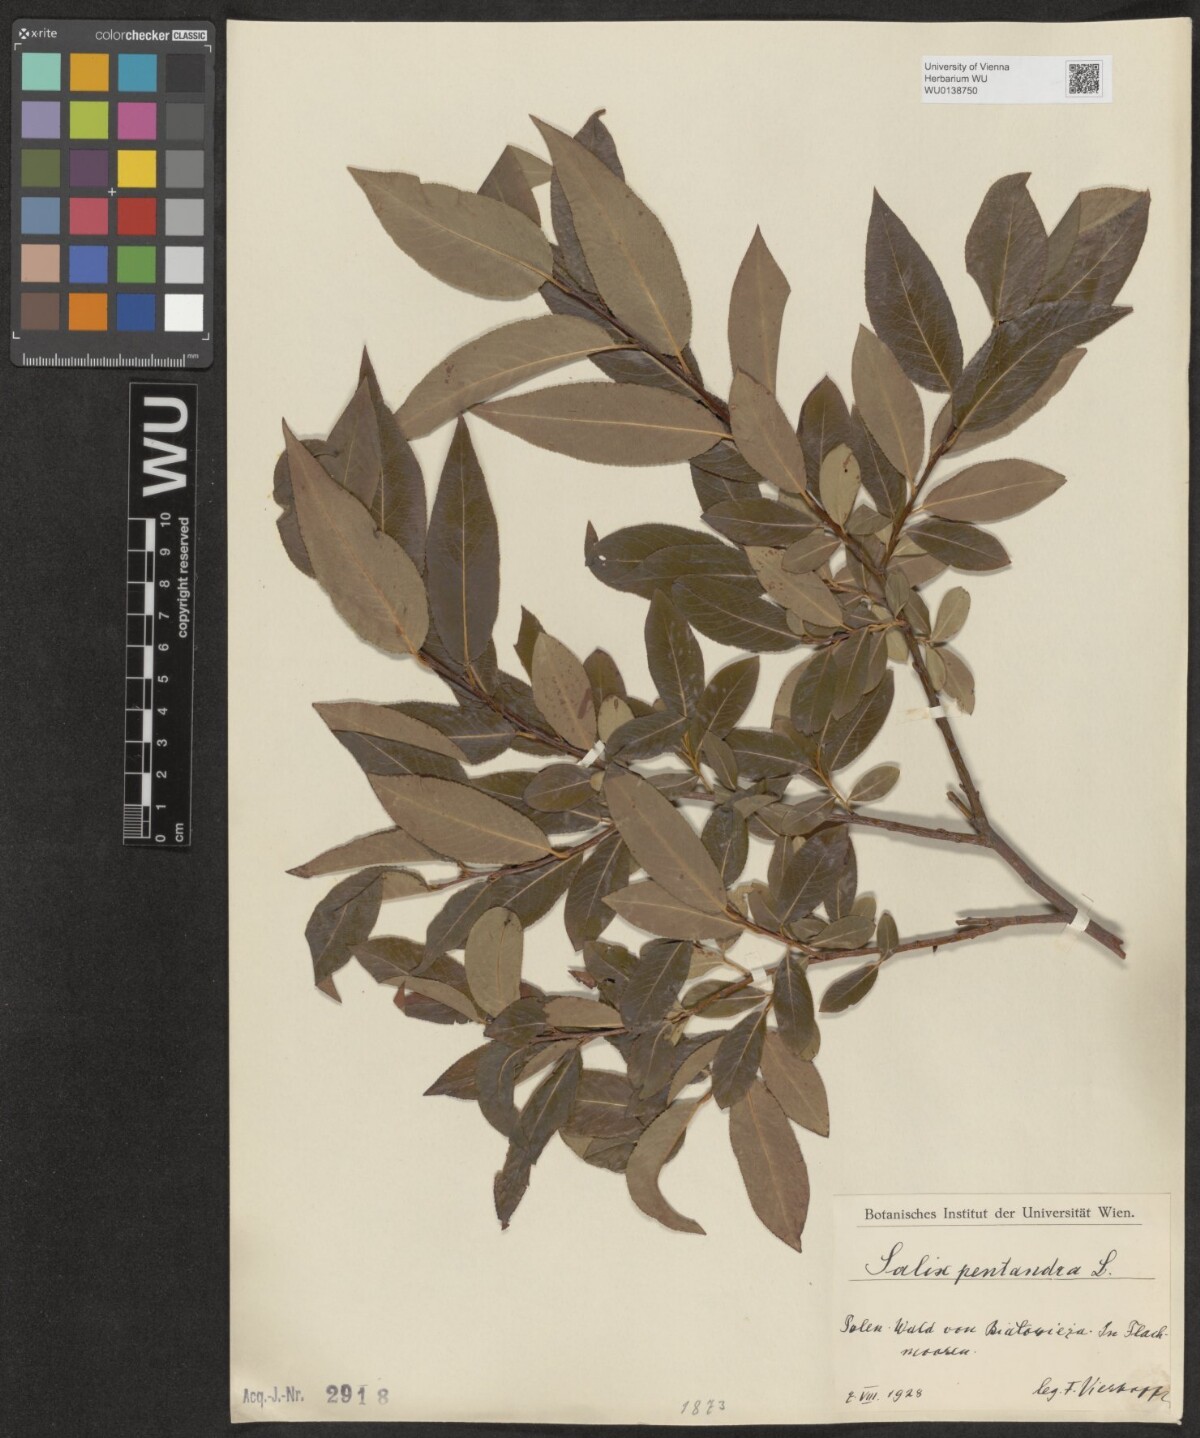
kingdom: Plantae
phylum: Tracheophyta
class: Magnoliopsida
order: Malpighiales
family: Salicaceae
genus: Salix
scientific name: Salix pentandra
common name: Bay willow
